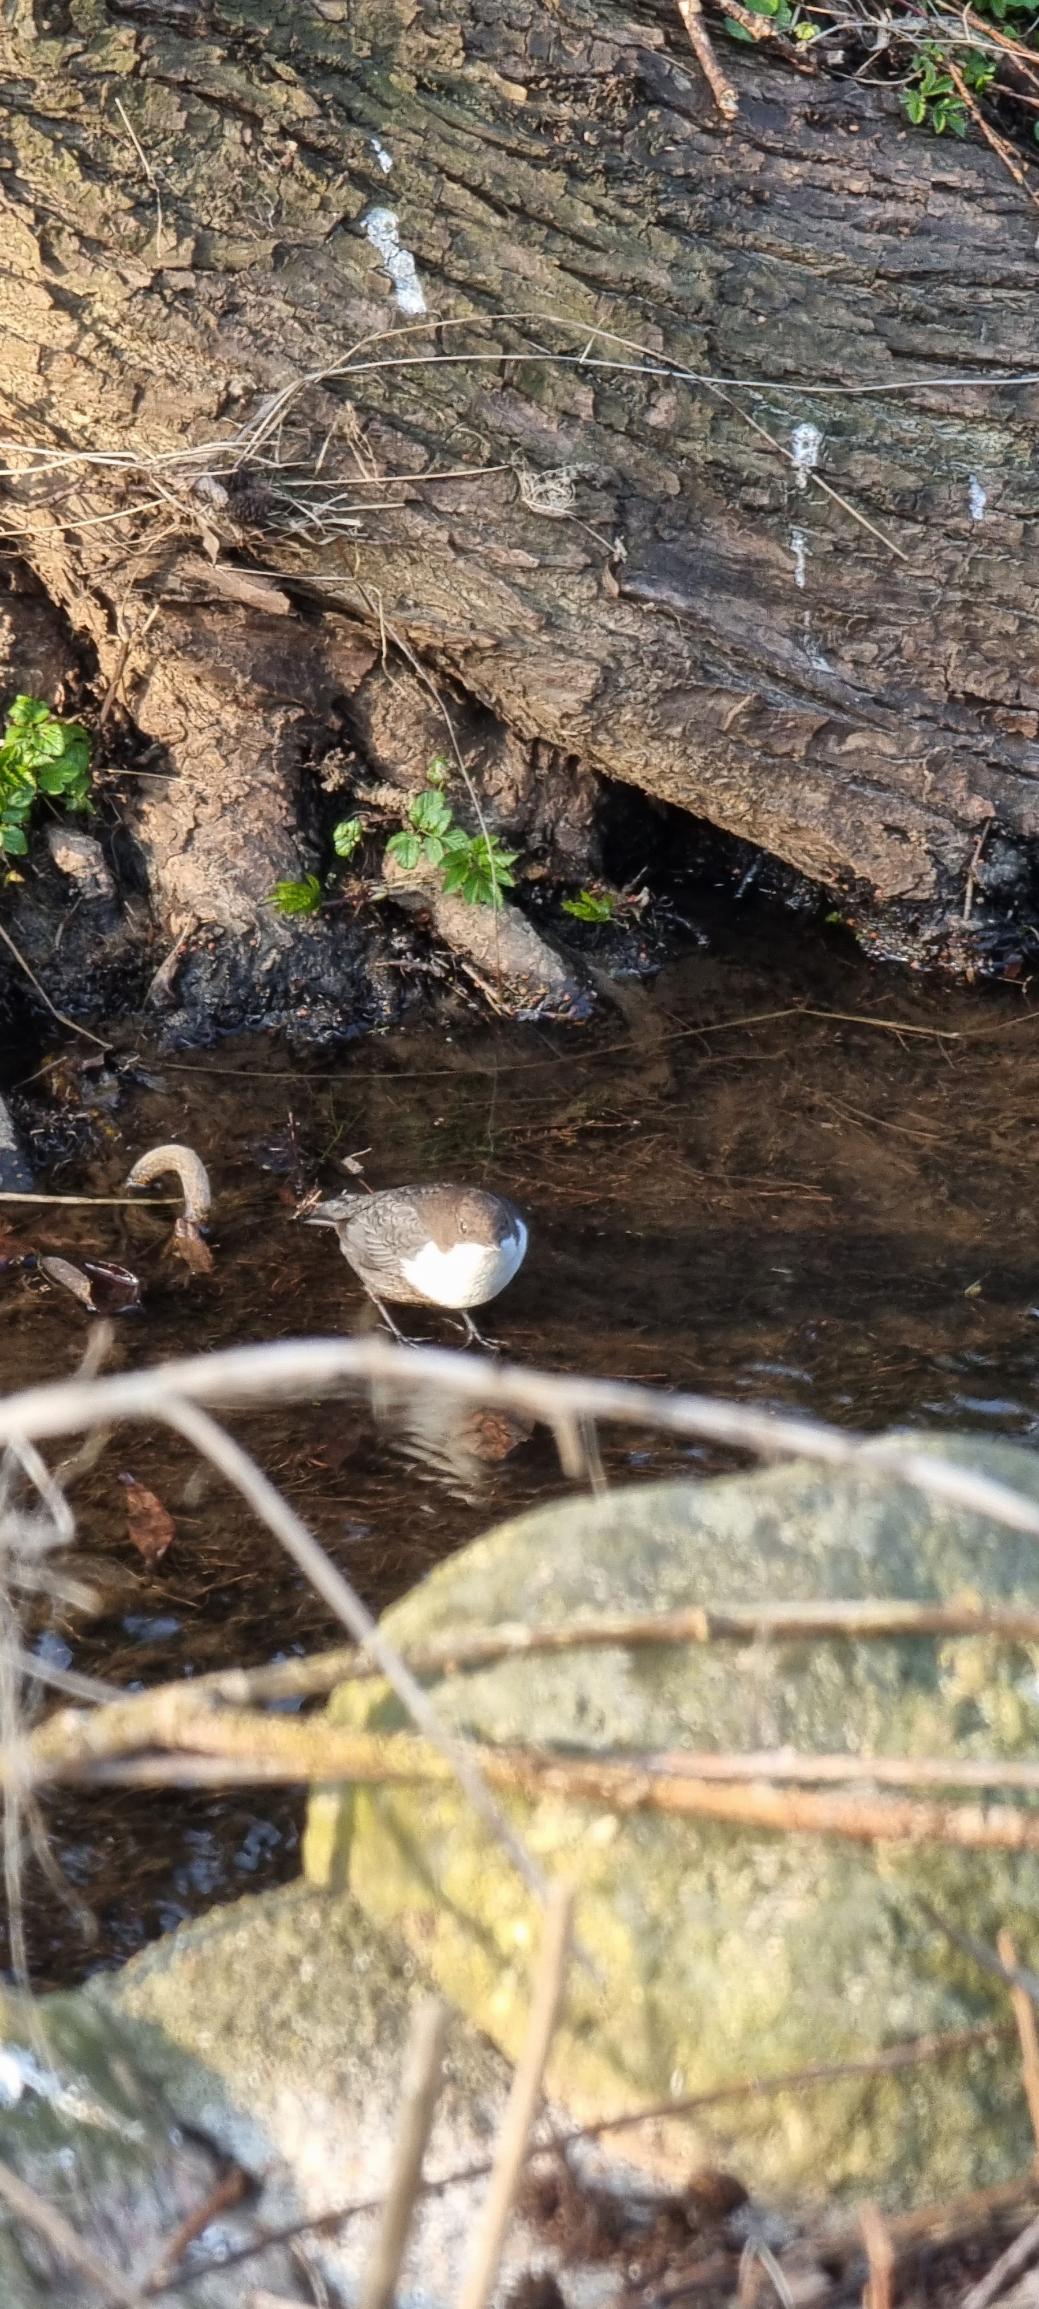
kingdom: Animalia
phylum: Chordata
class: Aves
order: Passeriformes
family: Cinclidae
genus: Cinclus
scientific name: Cinclus cinclus
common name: Vandstær
